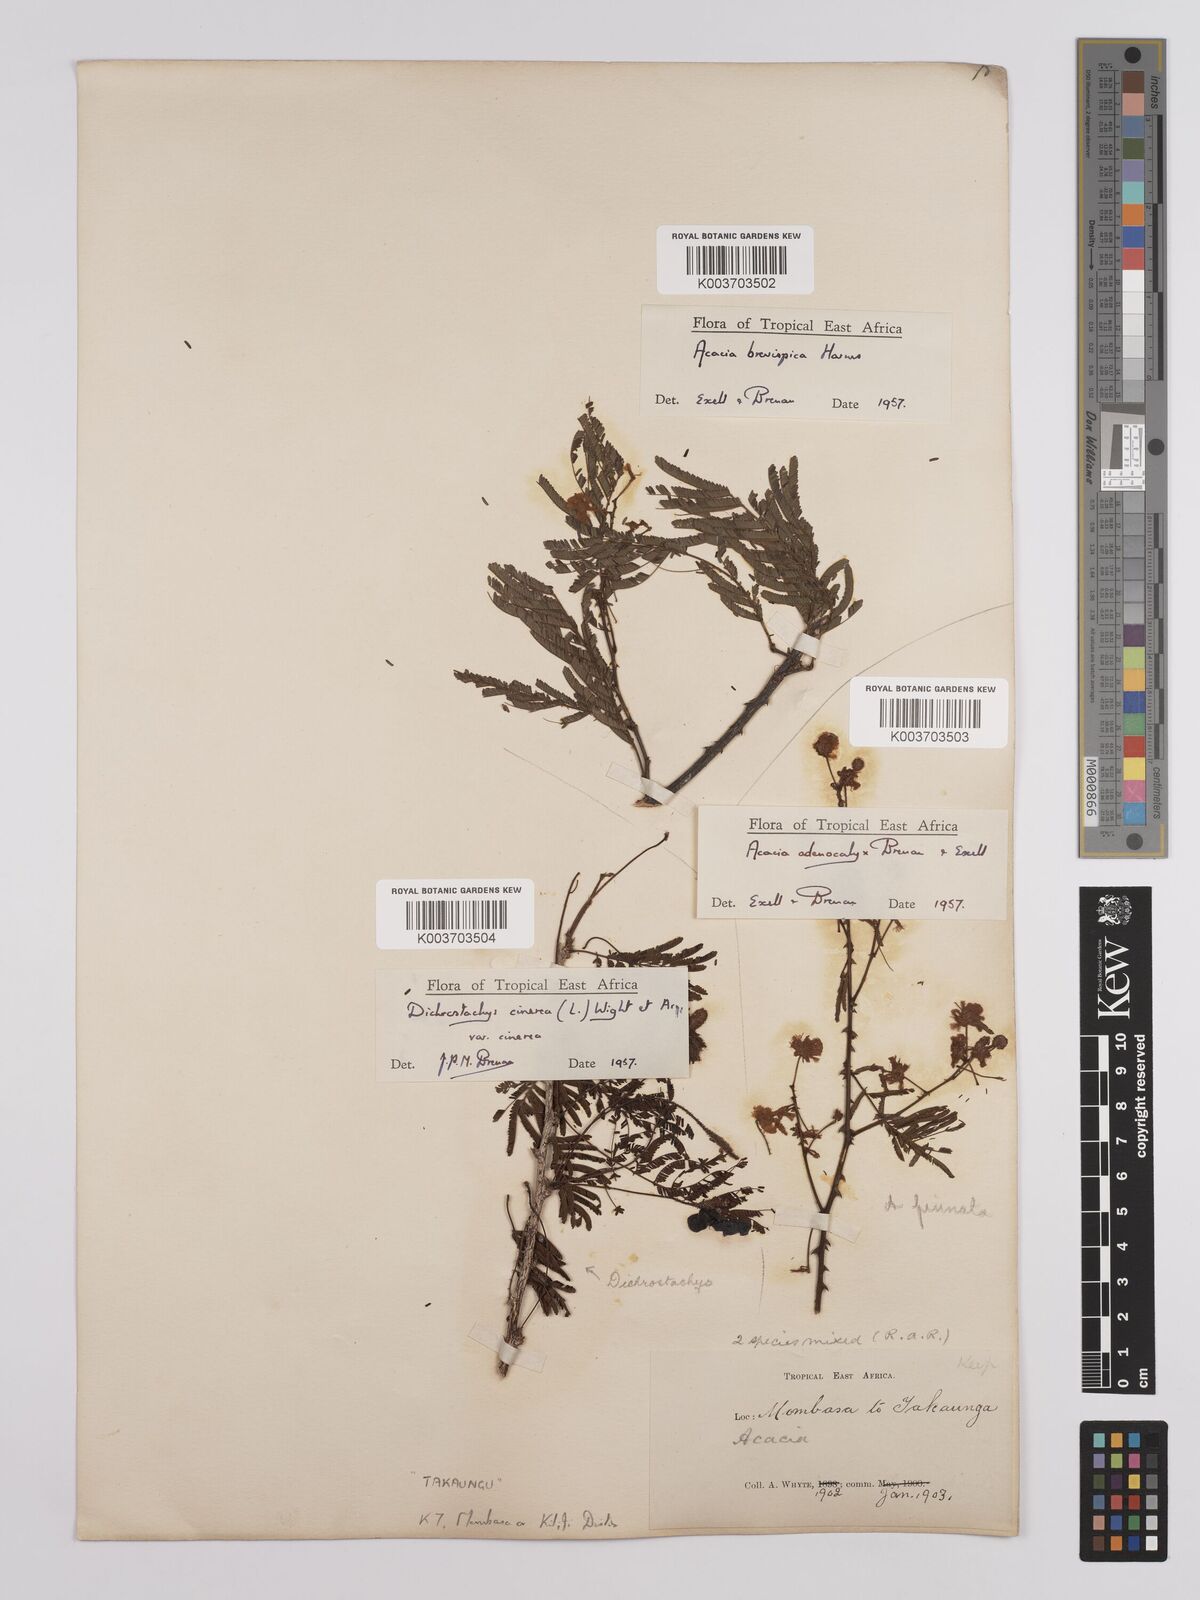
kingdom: Plantae
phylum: Tracheophyta
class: Magnoliopsida
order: Fabales
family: Fabaceae
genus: Senegalia
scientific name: Senegalia adenocalyx
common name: Pfurura
